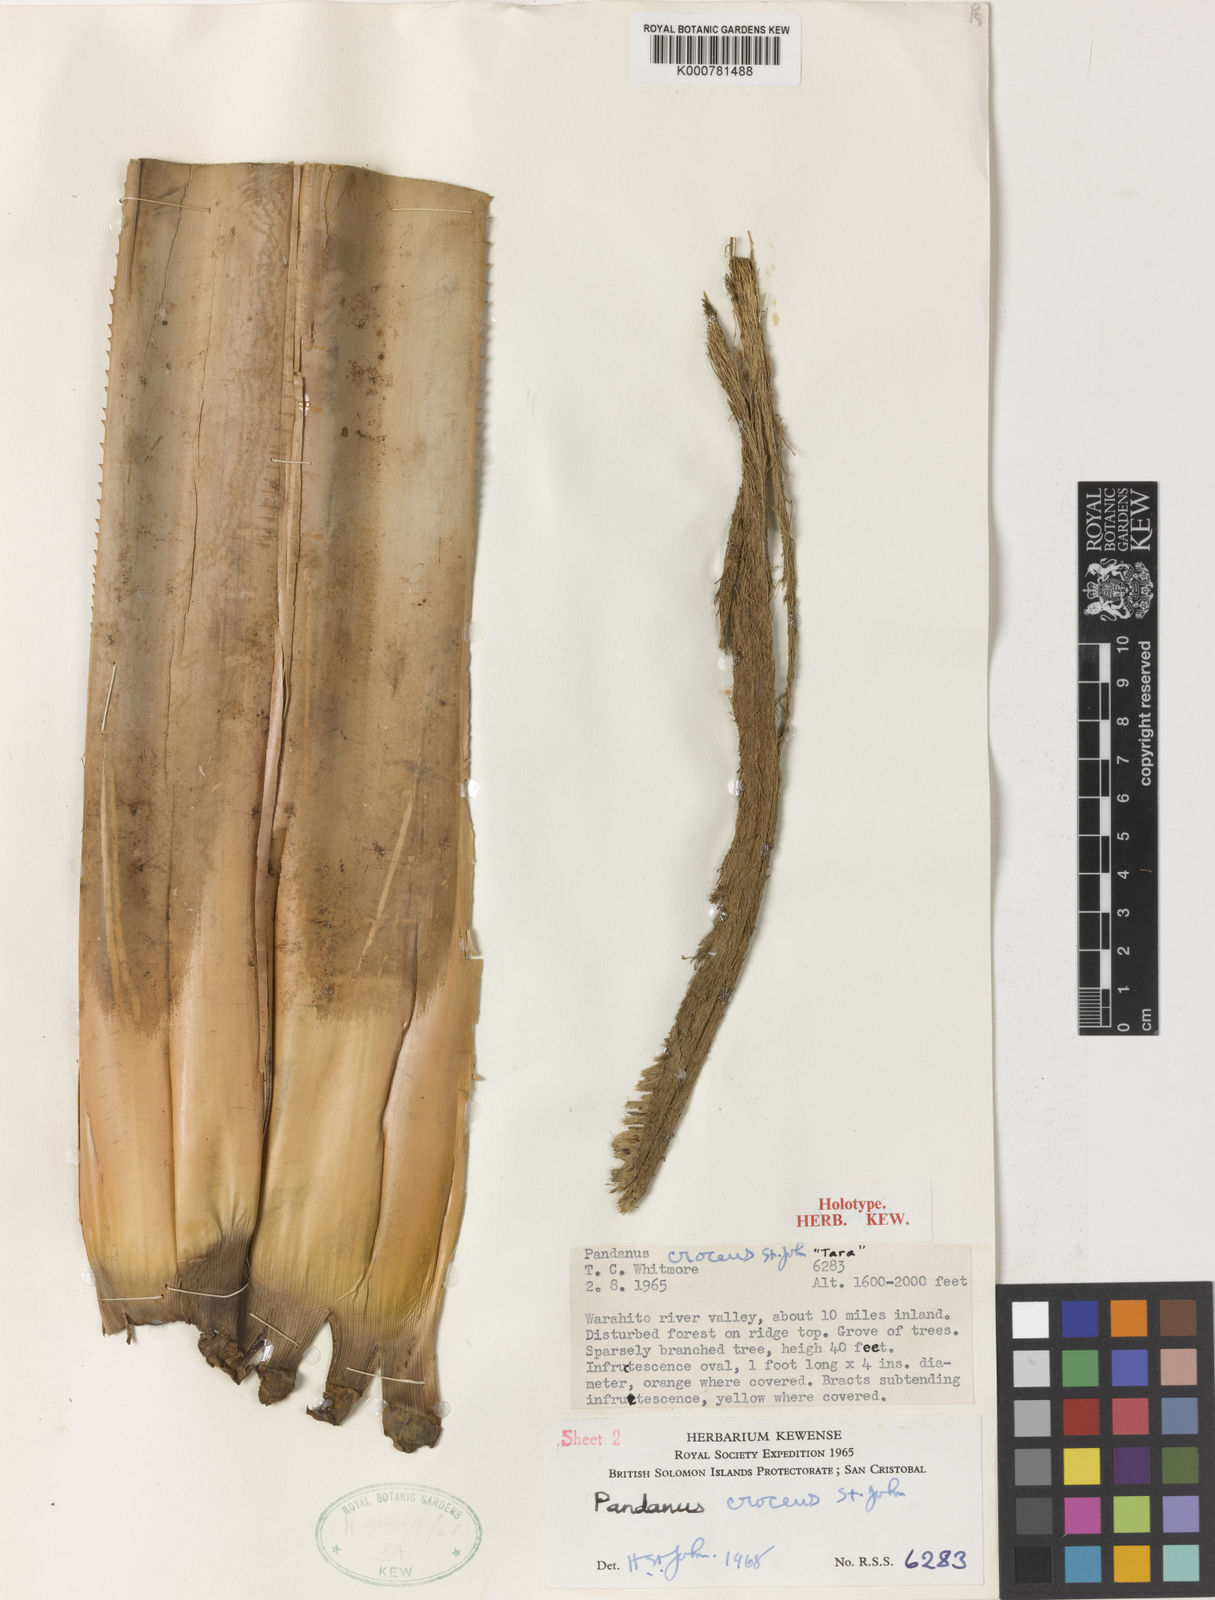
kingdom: Plantae
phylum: Tracheophyta
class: Liliopsida
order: Pandanales
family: Pandanaceae
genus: Pandanus
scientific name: Pandanus
